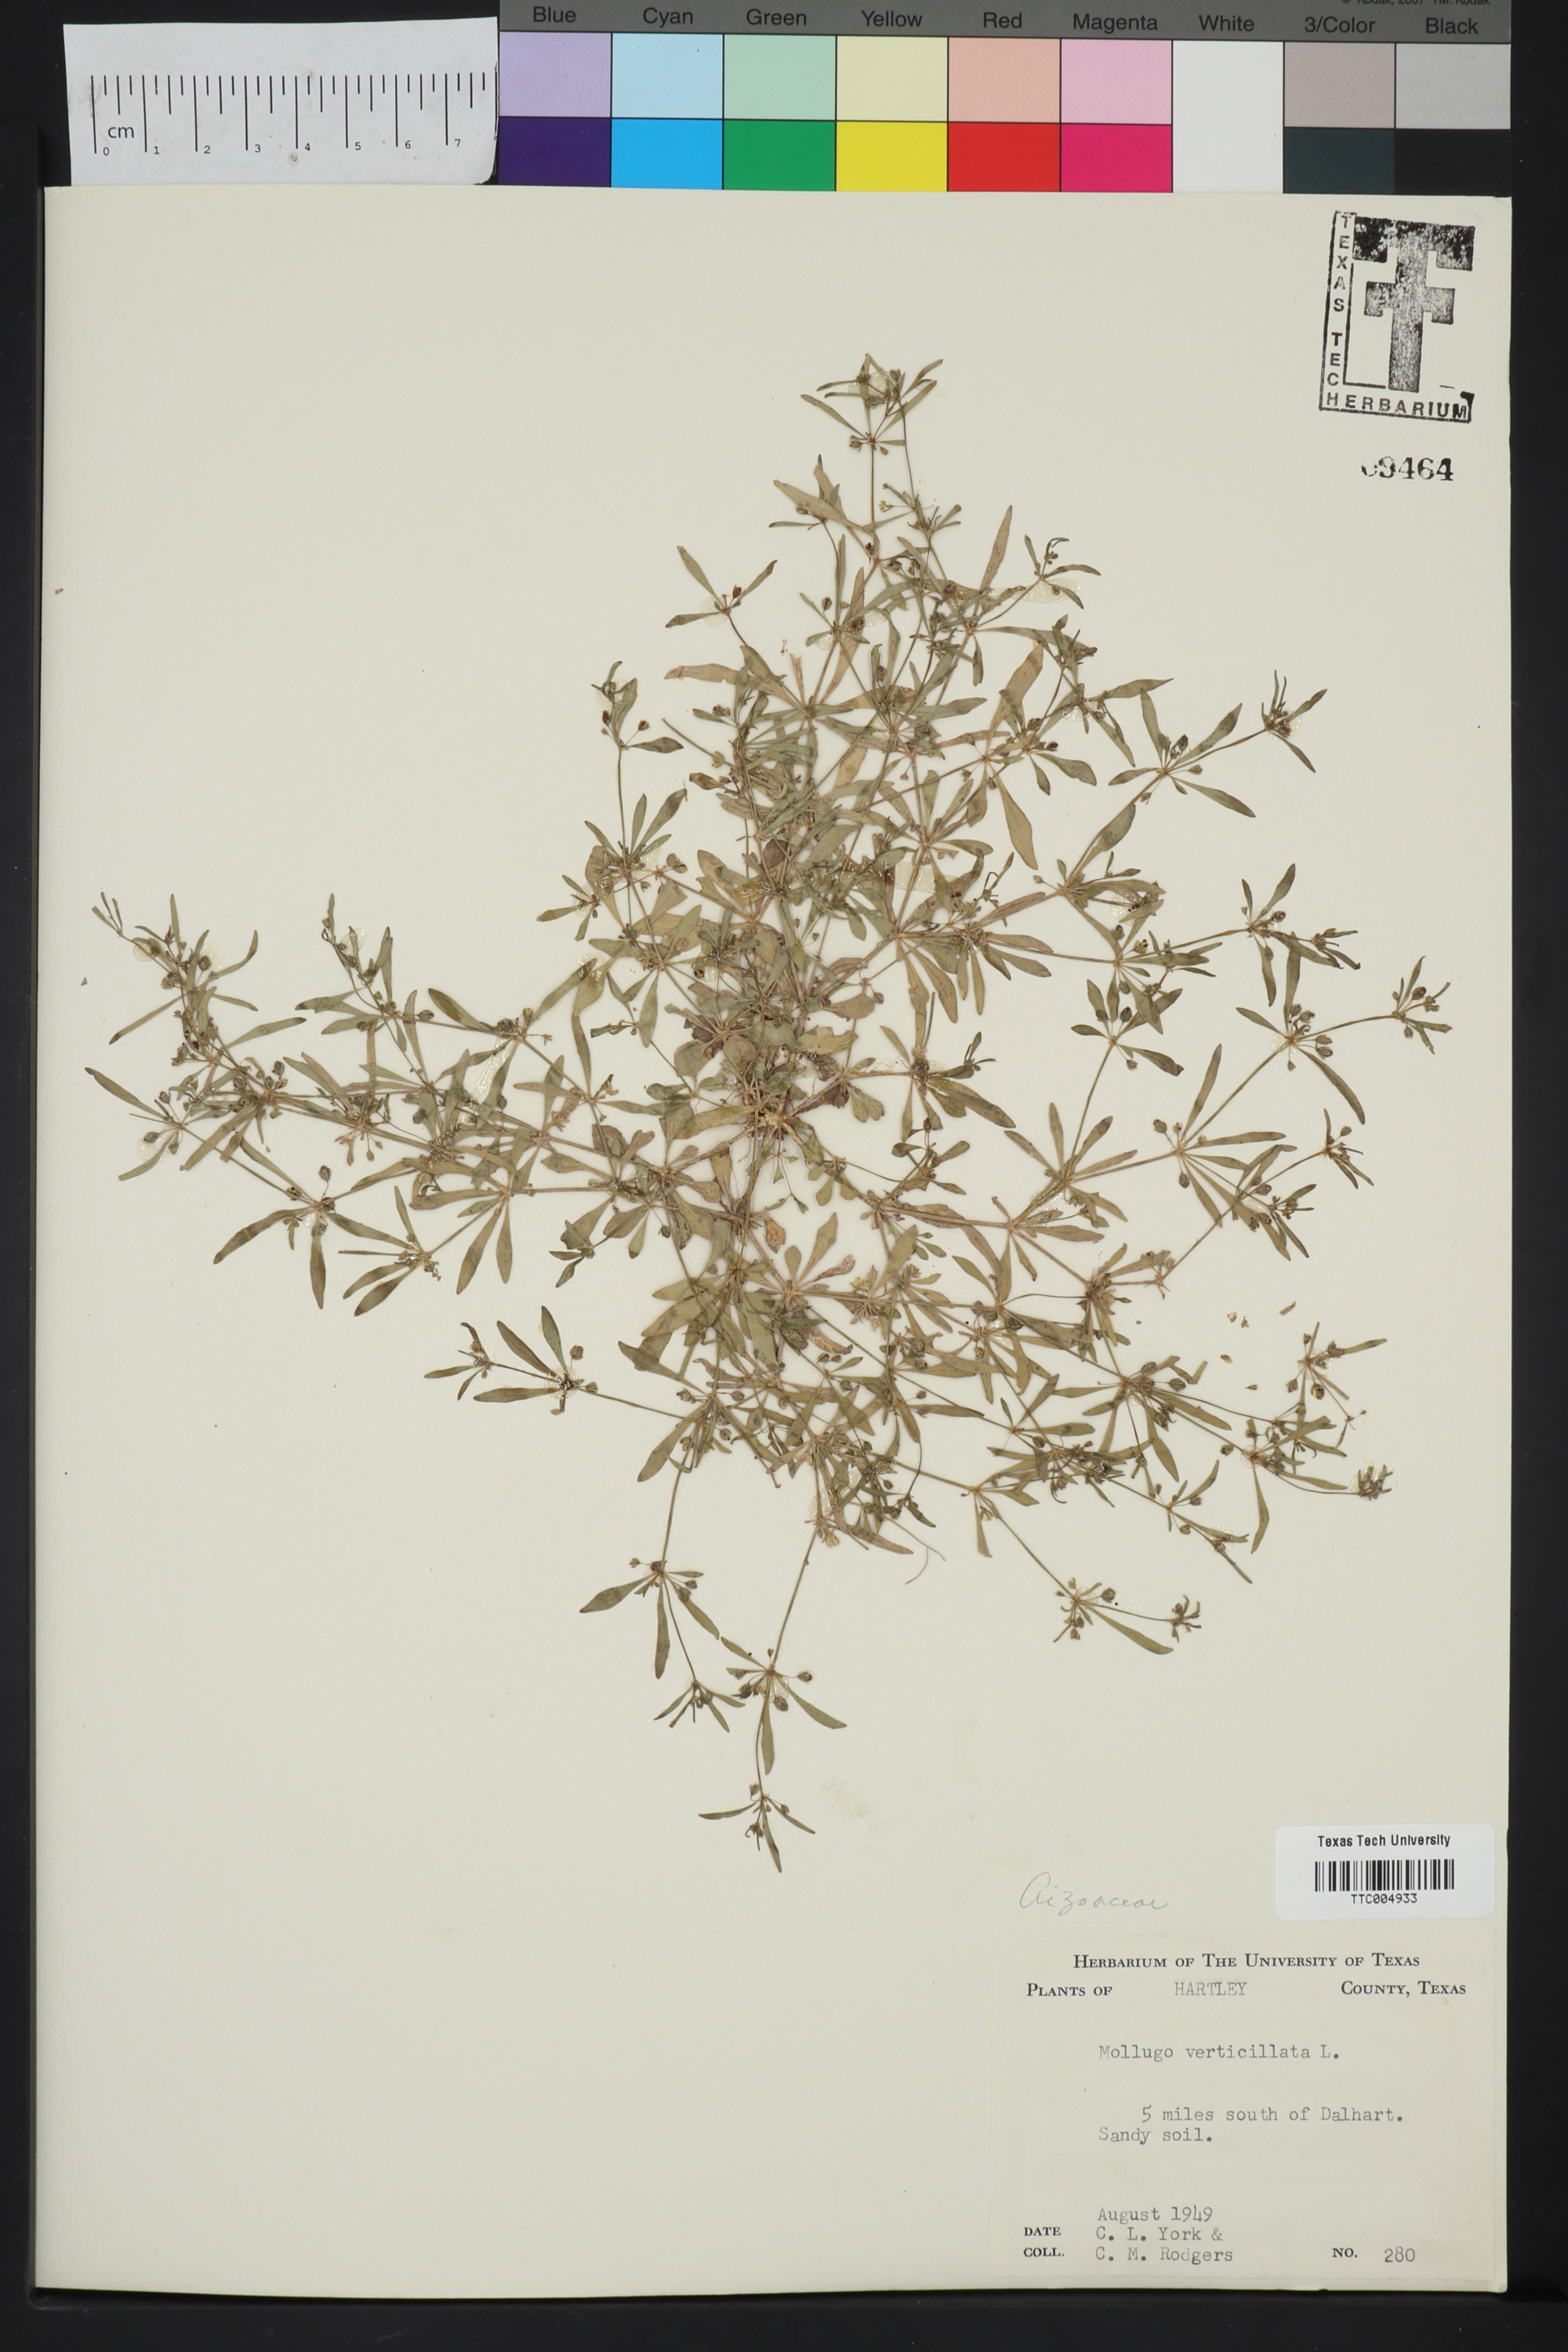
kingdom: Plantae
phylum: Tracheophyta
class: Magnoliopsida
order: Caryophyllales
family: Molluginaceae
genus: Mollugo
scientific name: Mollugo verticillata
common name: Green carpetweed
